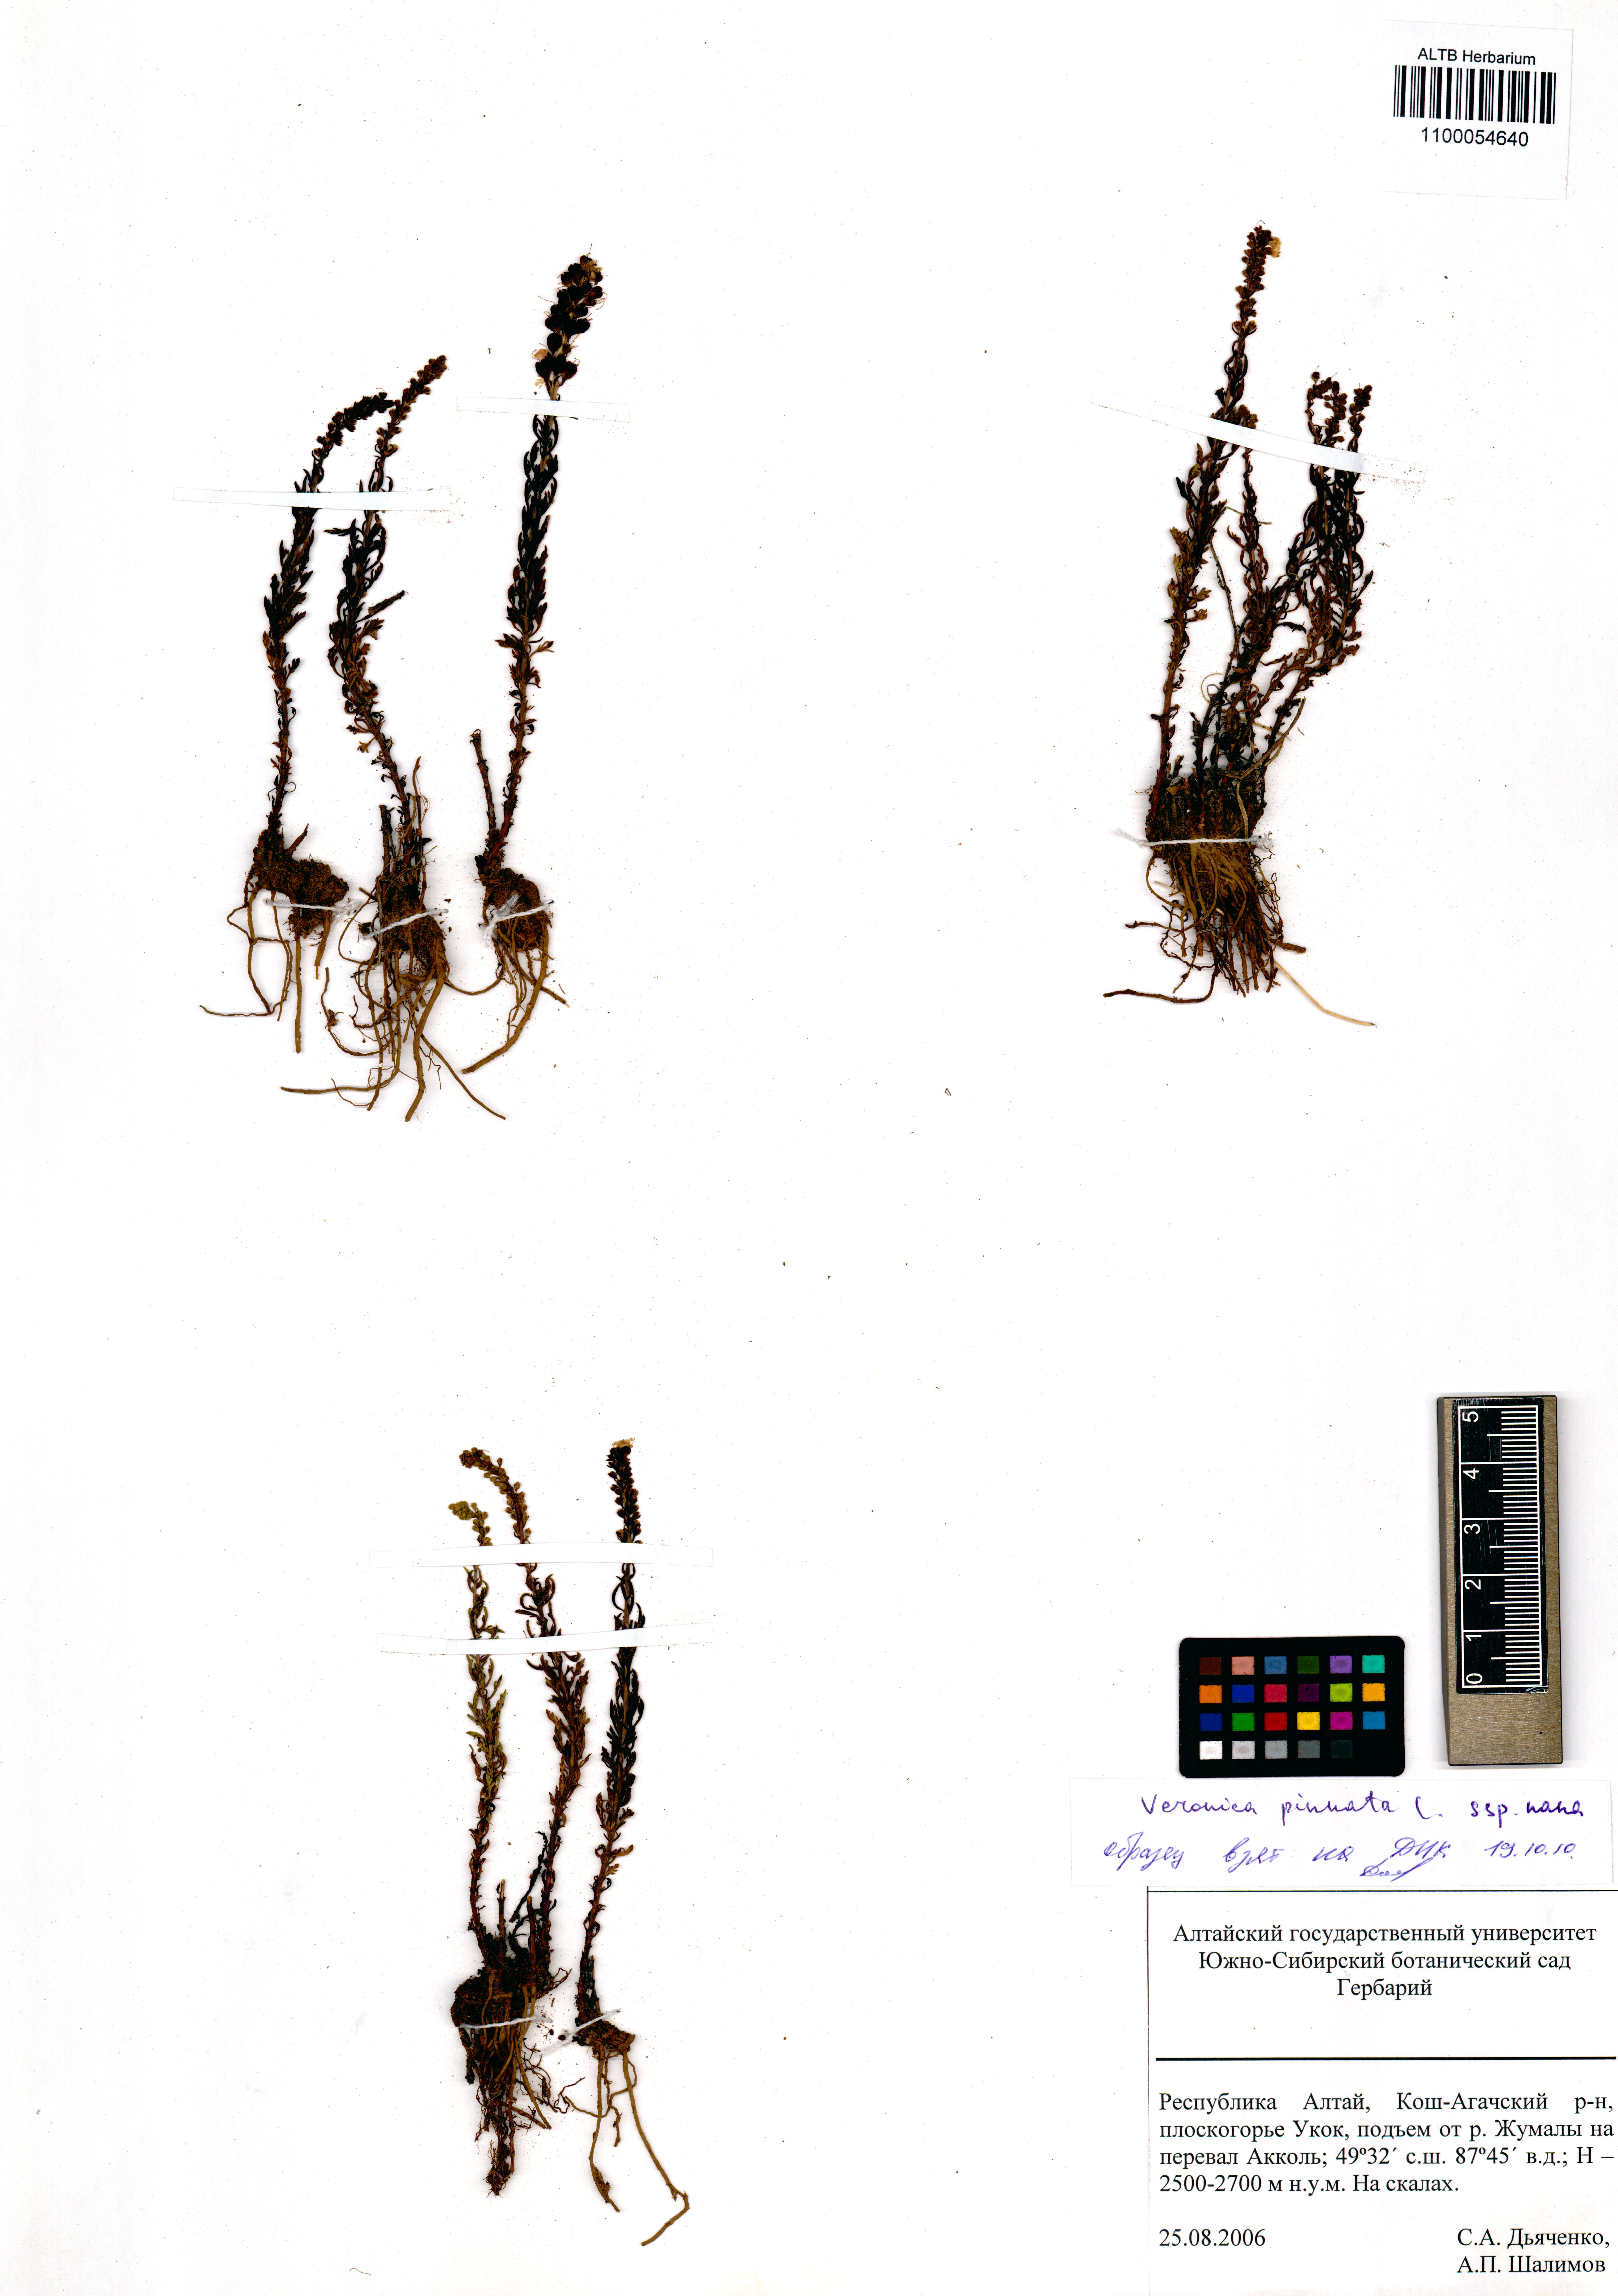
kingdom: Plantae
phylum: Tracheophyta
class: Magnoliopsida
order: Lamiales
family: Plantaginaceae
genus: Veronica
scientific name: Veronica pinnata
